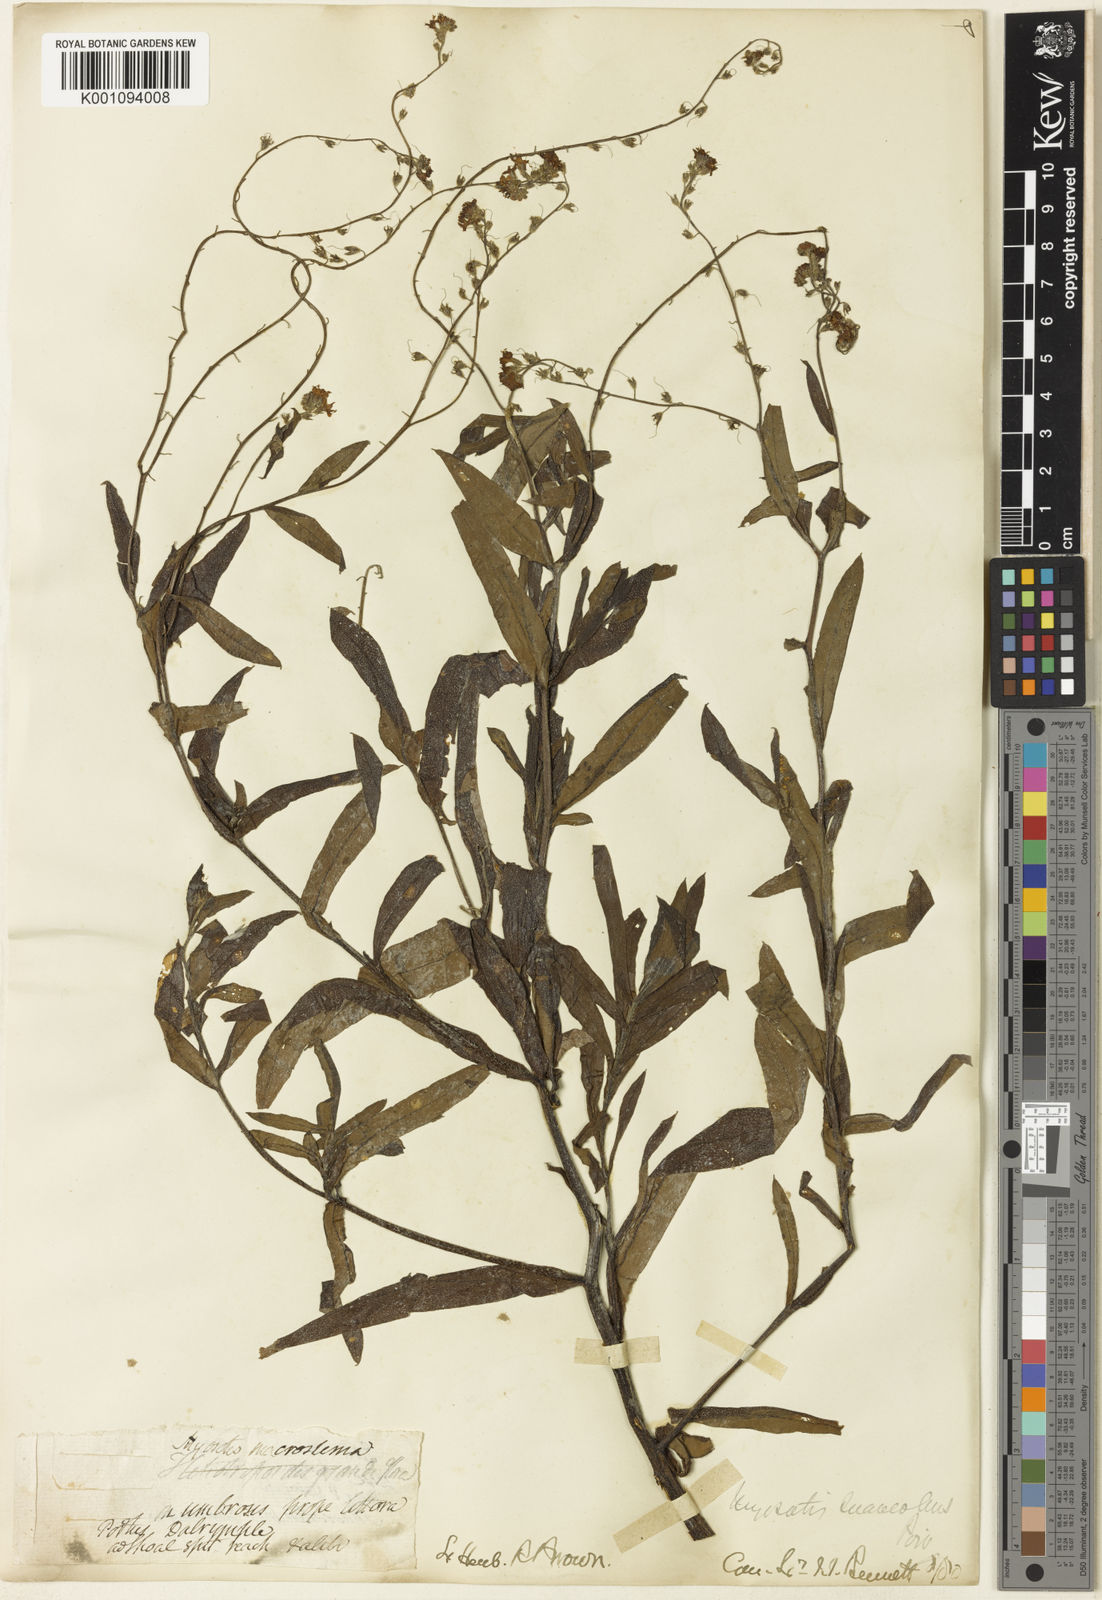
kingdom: Plantae
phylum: Tracheophyta
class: Magnoliopsida
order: Boraginales
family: Boraginaceae
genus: Myosotis
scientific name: Myosotis exarrhena
